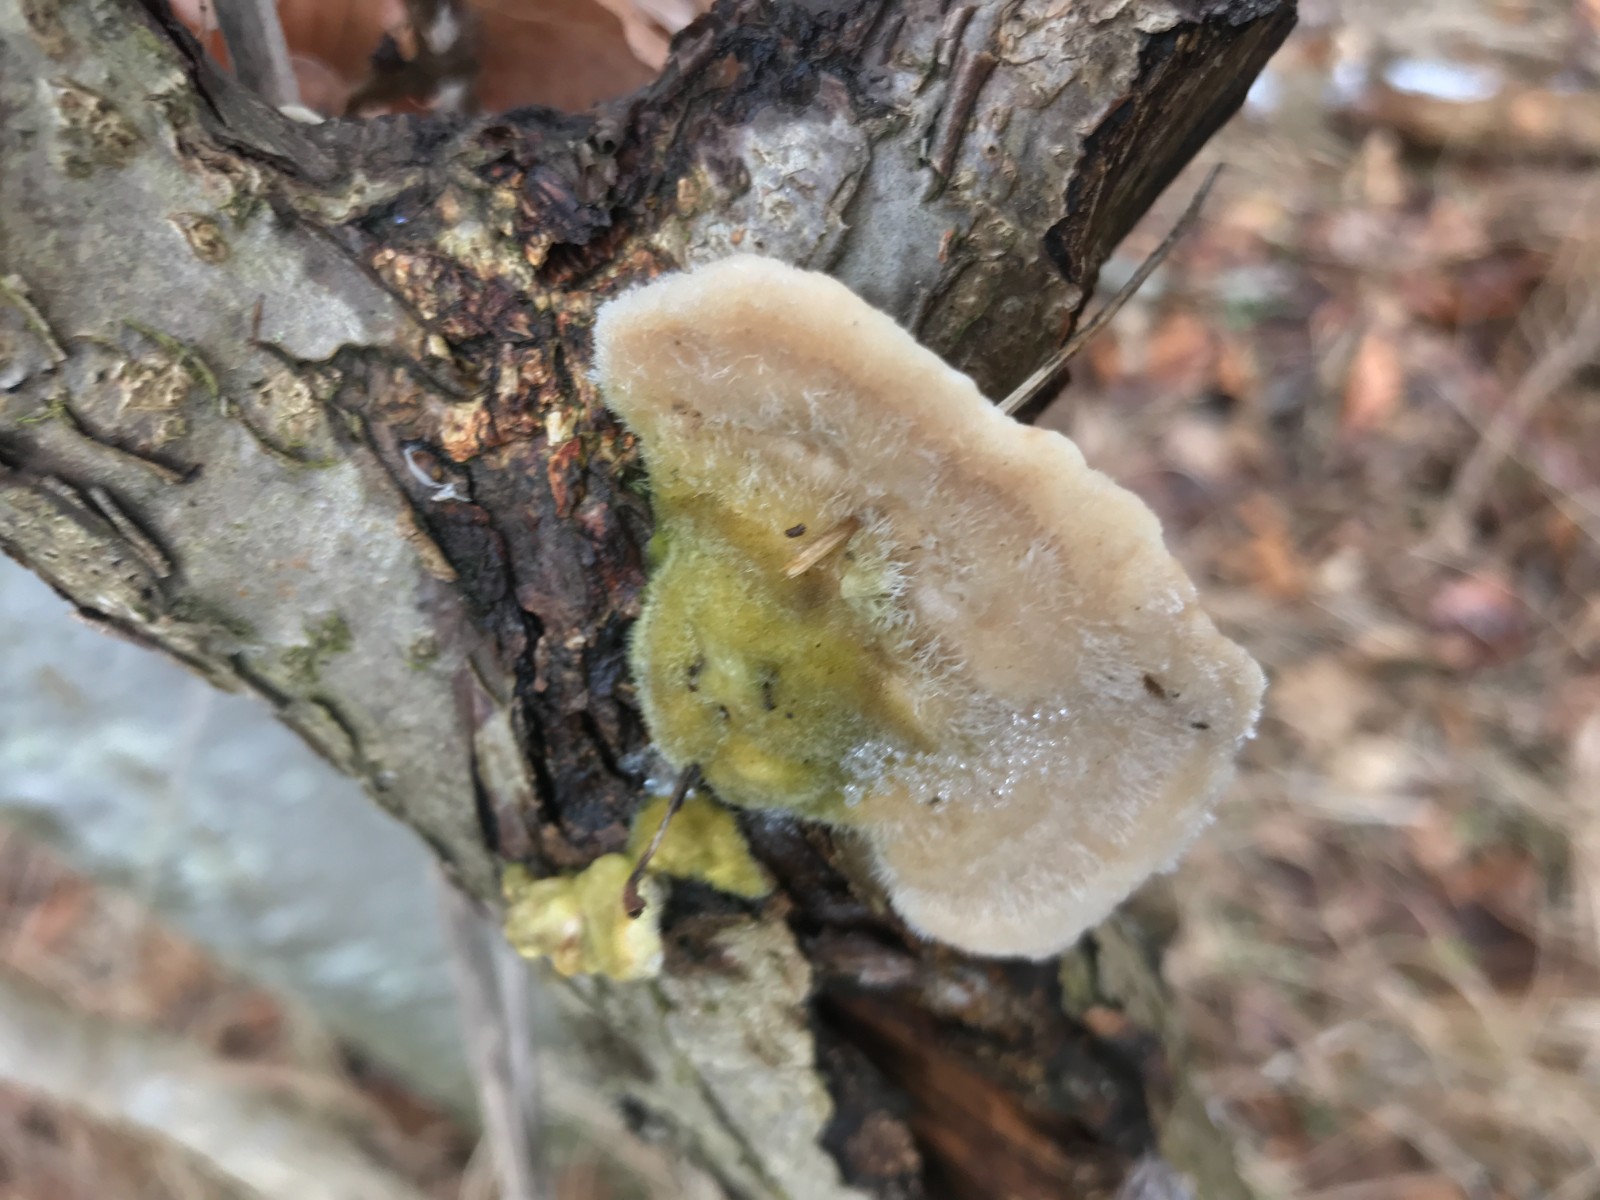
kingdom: Fungi
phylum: Basidiomycota
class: Agaricomycetes
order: Polyporales
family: Polyporaceae
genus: Trametes
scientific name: Trametes hirsuta
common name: håret læderporesvamp
